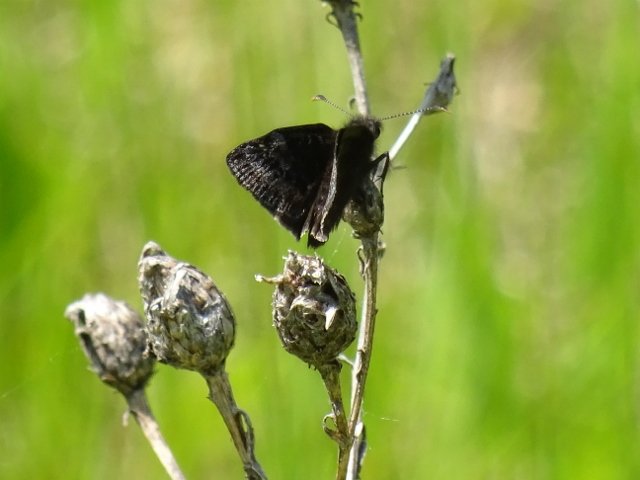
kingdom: Animalia
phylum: Arthropoda
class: Insecta
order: Lepidoptera
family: Hesperiidae
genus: Erynnis
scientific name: Erynnis icelus
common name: Dreamy Duskywing
